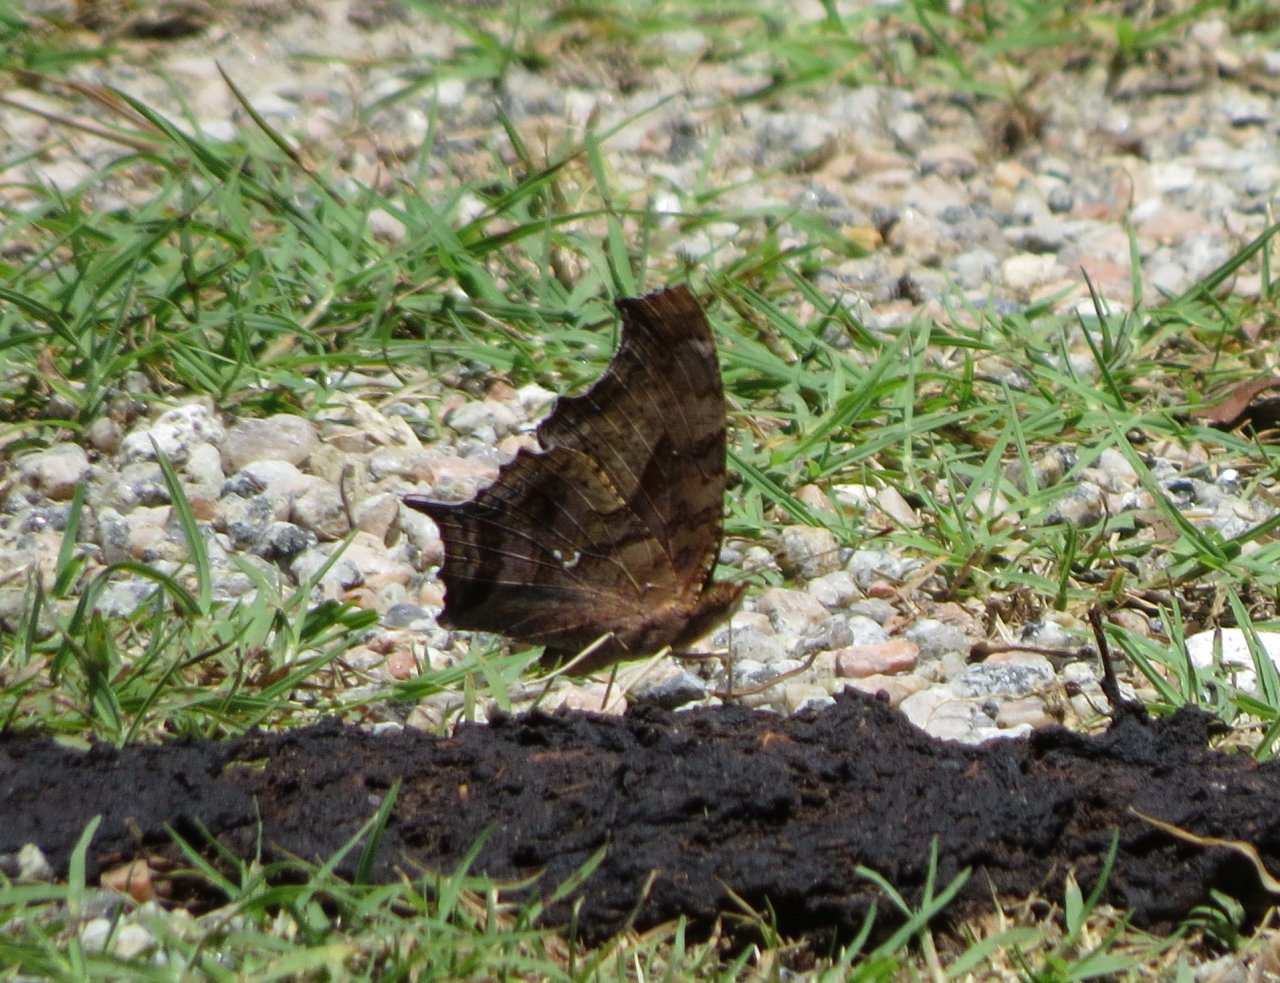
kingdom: Animalia
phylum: Arthropoda
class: Insecta
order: Lepidoptera
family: Nymphalidae
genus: Polygonia
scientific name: Polygonia interrogationis
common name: Question Mark
